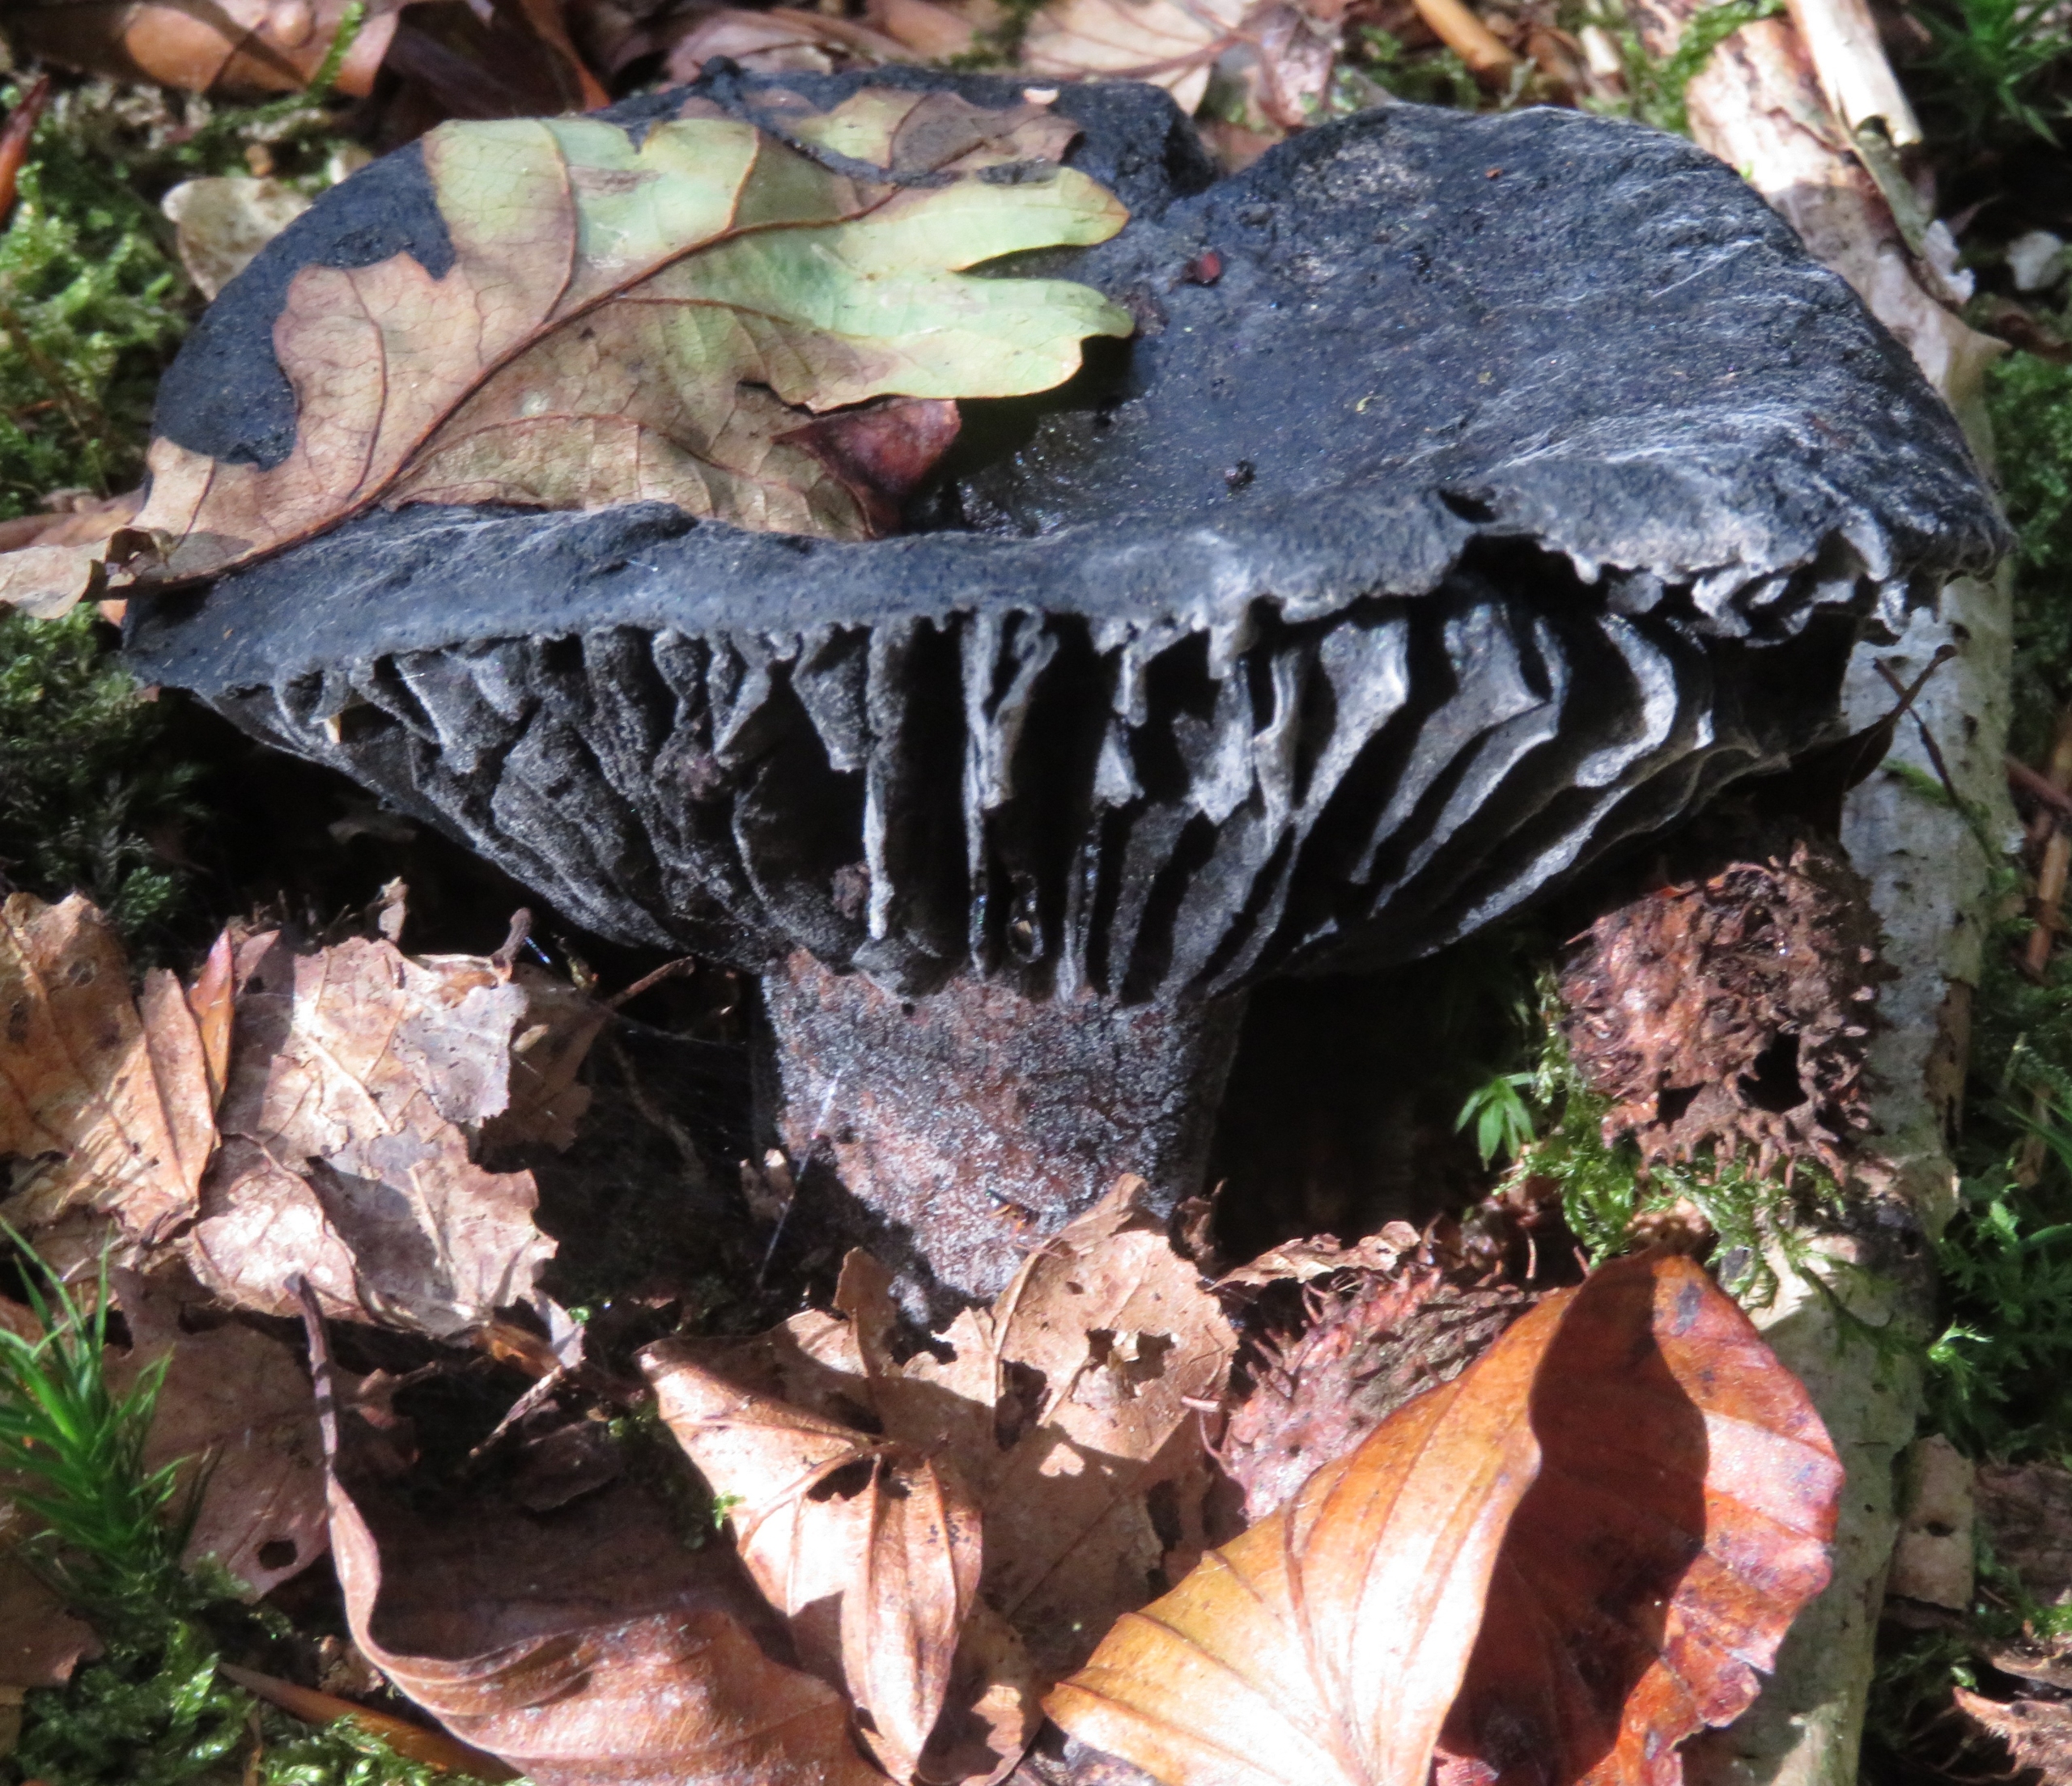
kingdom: Fungi
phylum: Basidiomycota
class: Agaricomycetes
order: Russulales
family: Russulaceae
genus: Russula
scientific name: Russula adusta
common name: Sværtende skørhat
